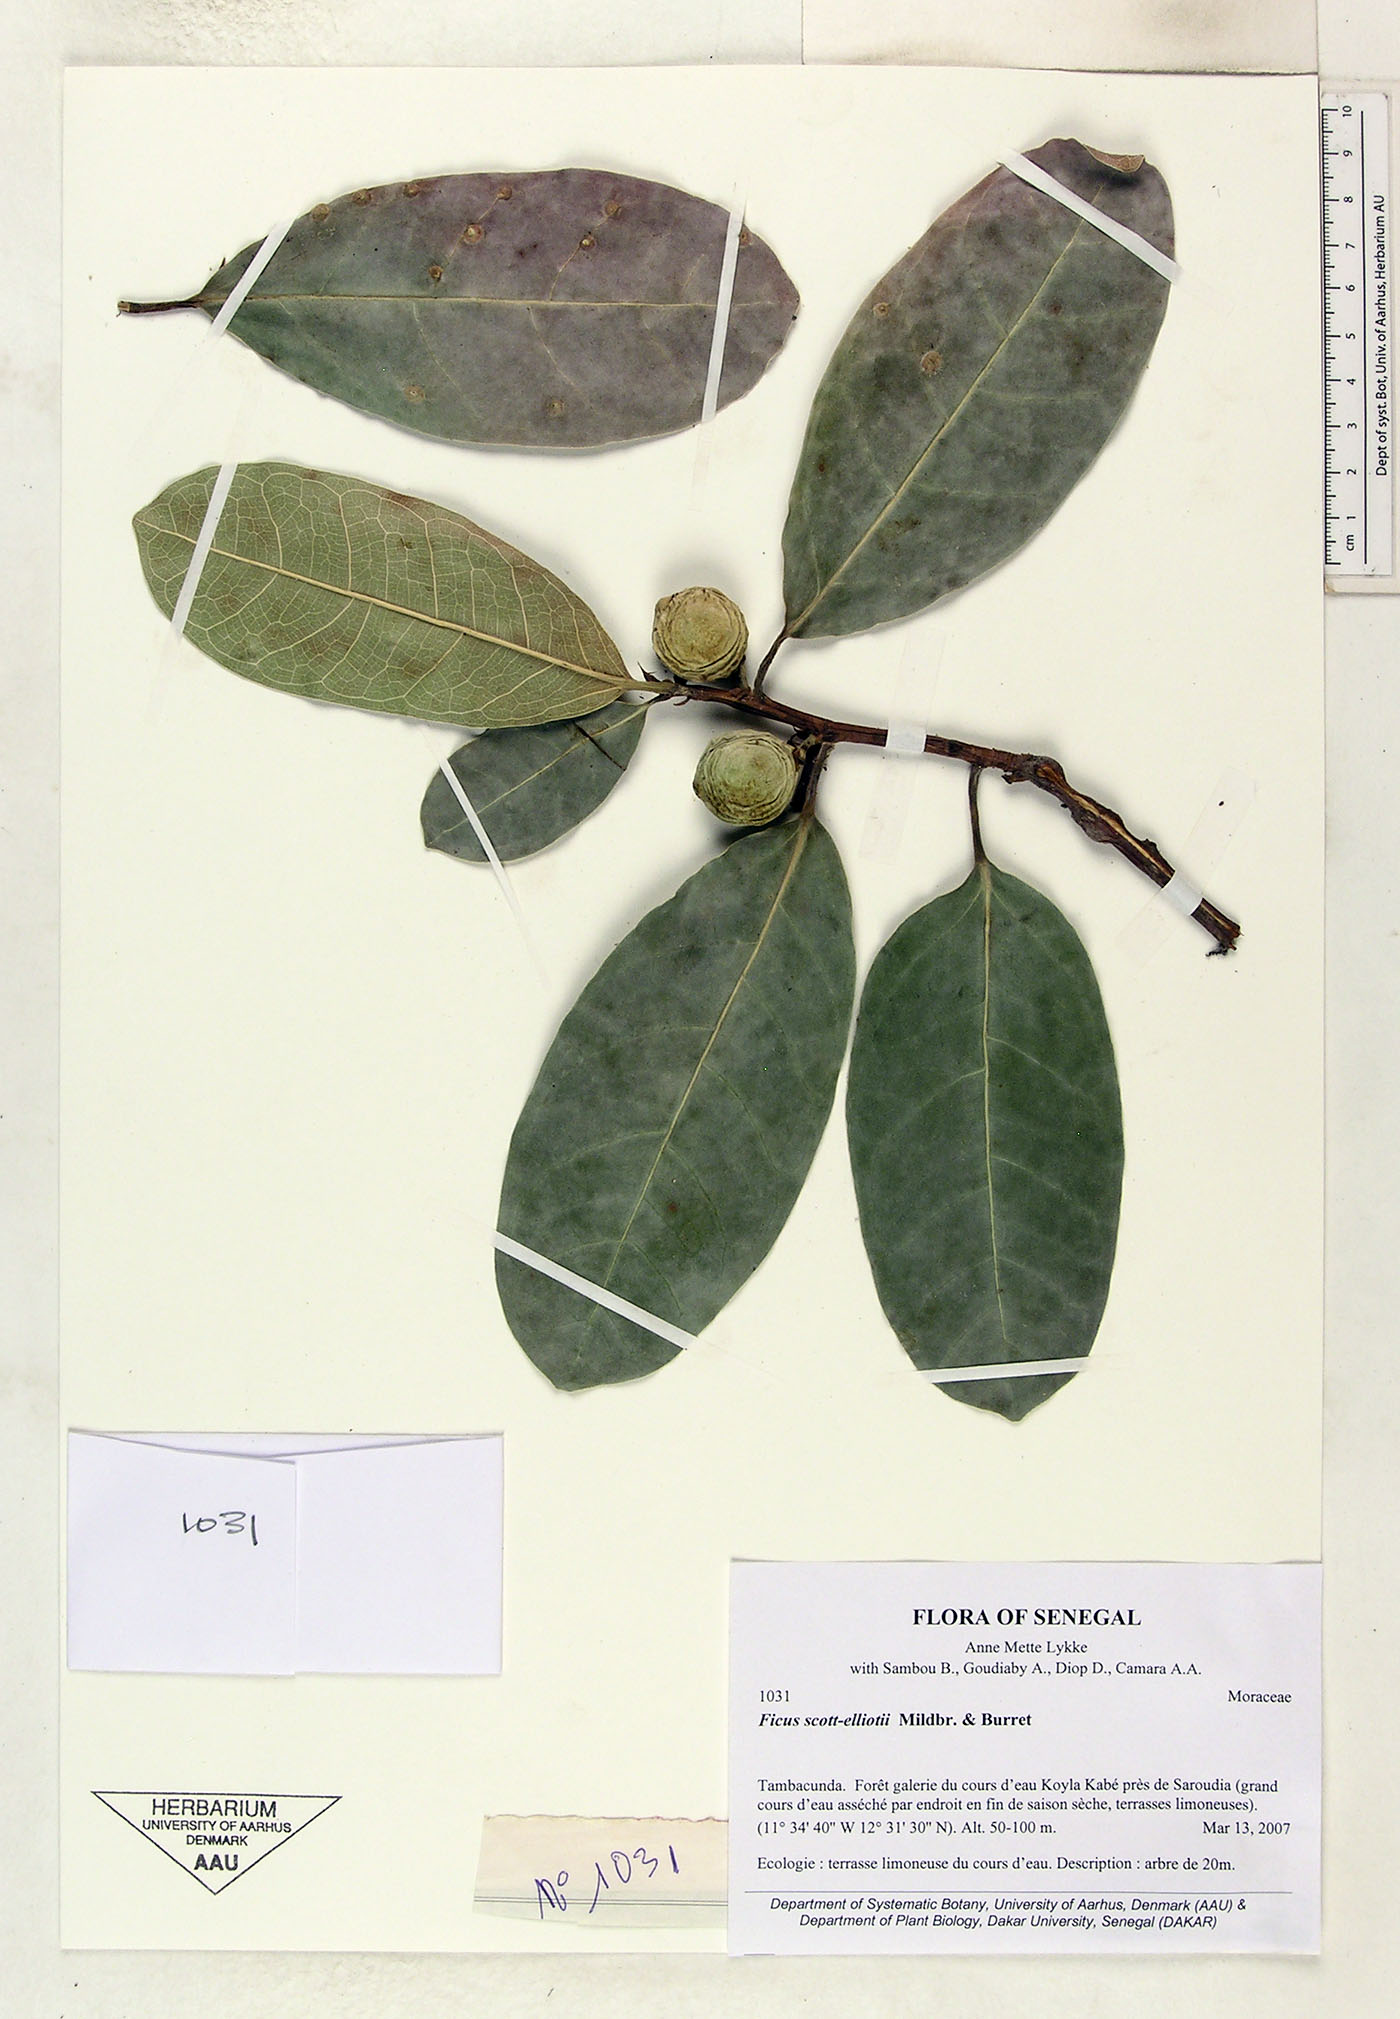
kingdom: Plantae
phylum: Tracheophyta
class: Magnoliopsida
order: Rosales
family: Moraceae
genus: Ficus
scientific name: Ficus scott-elliottii
